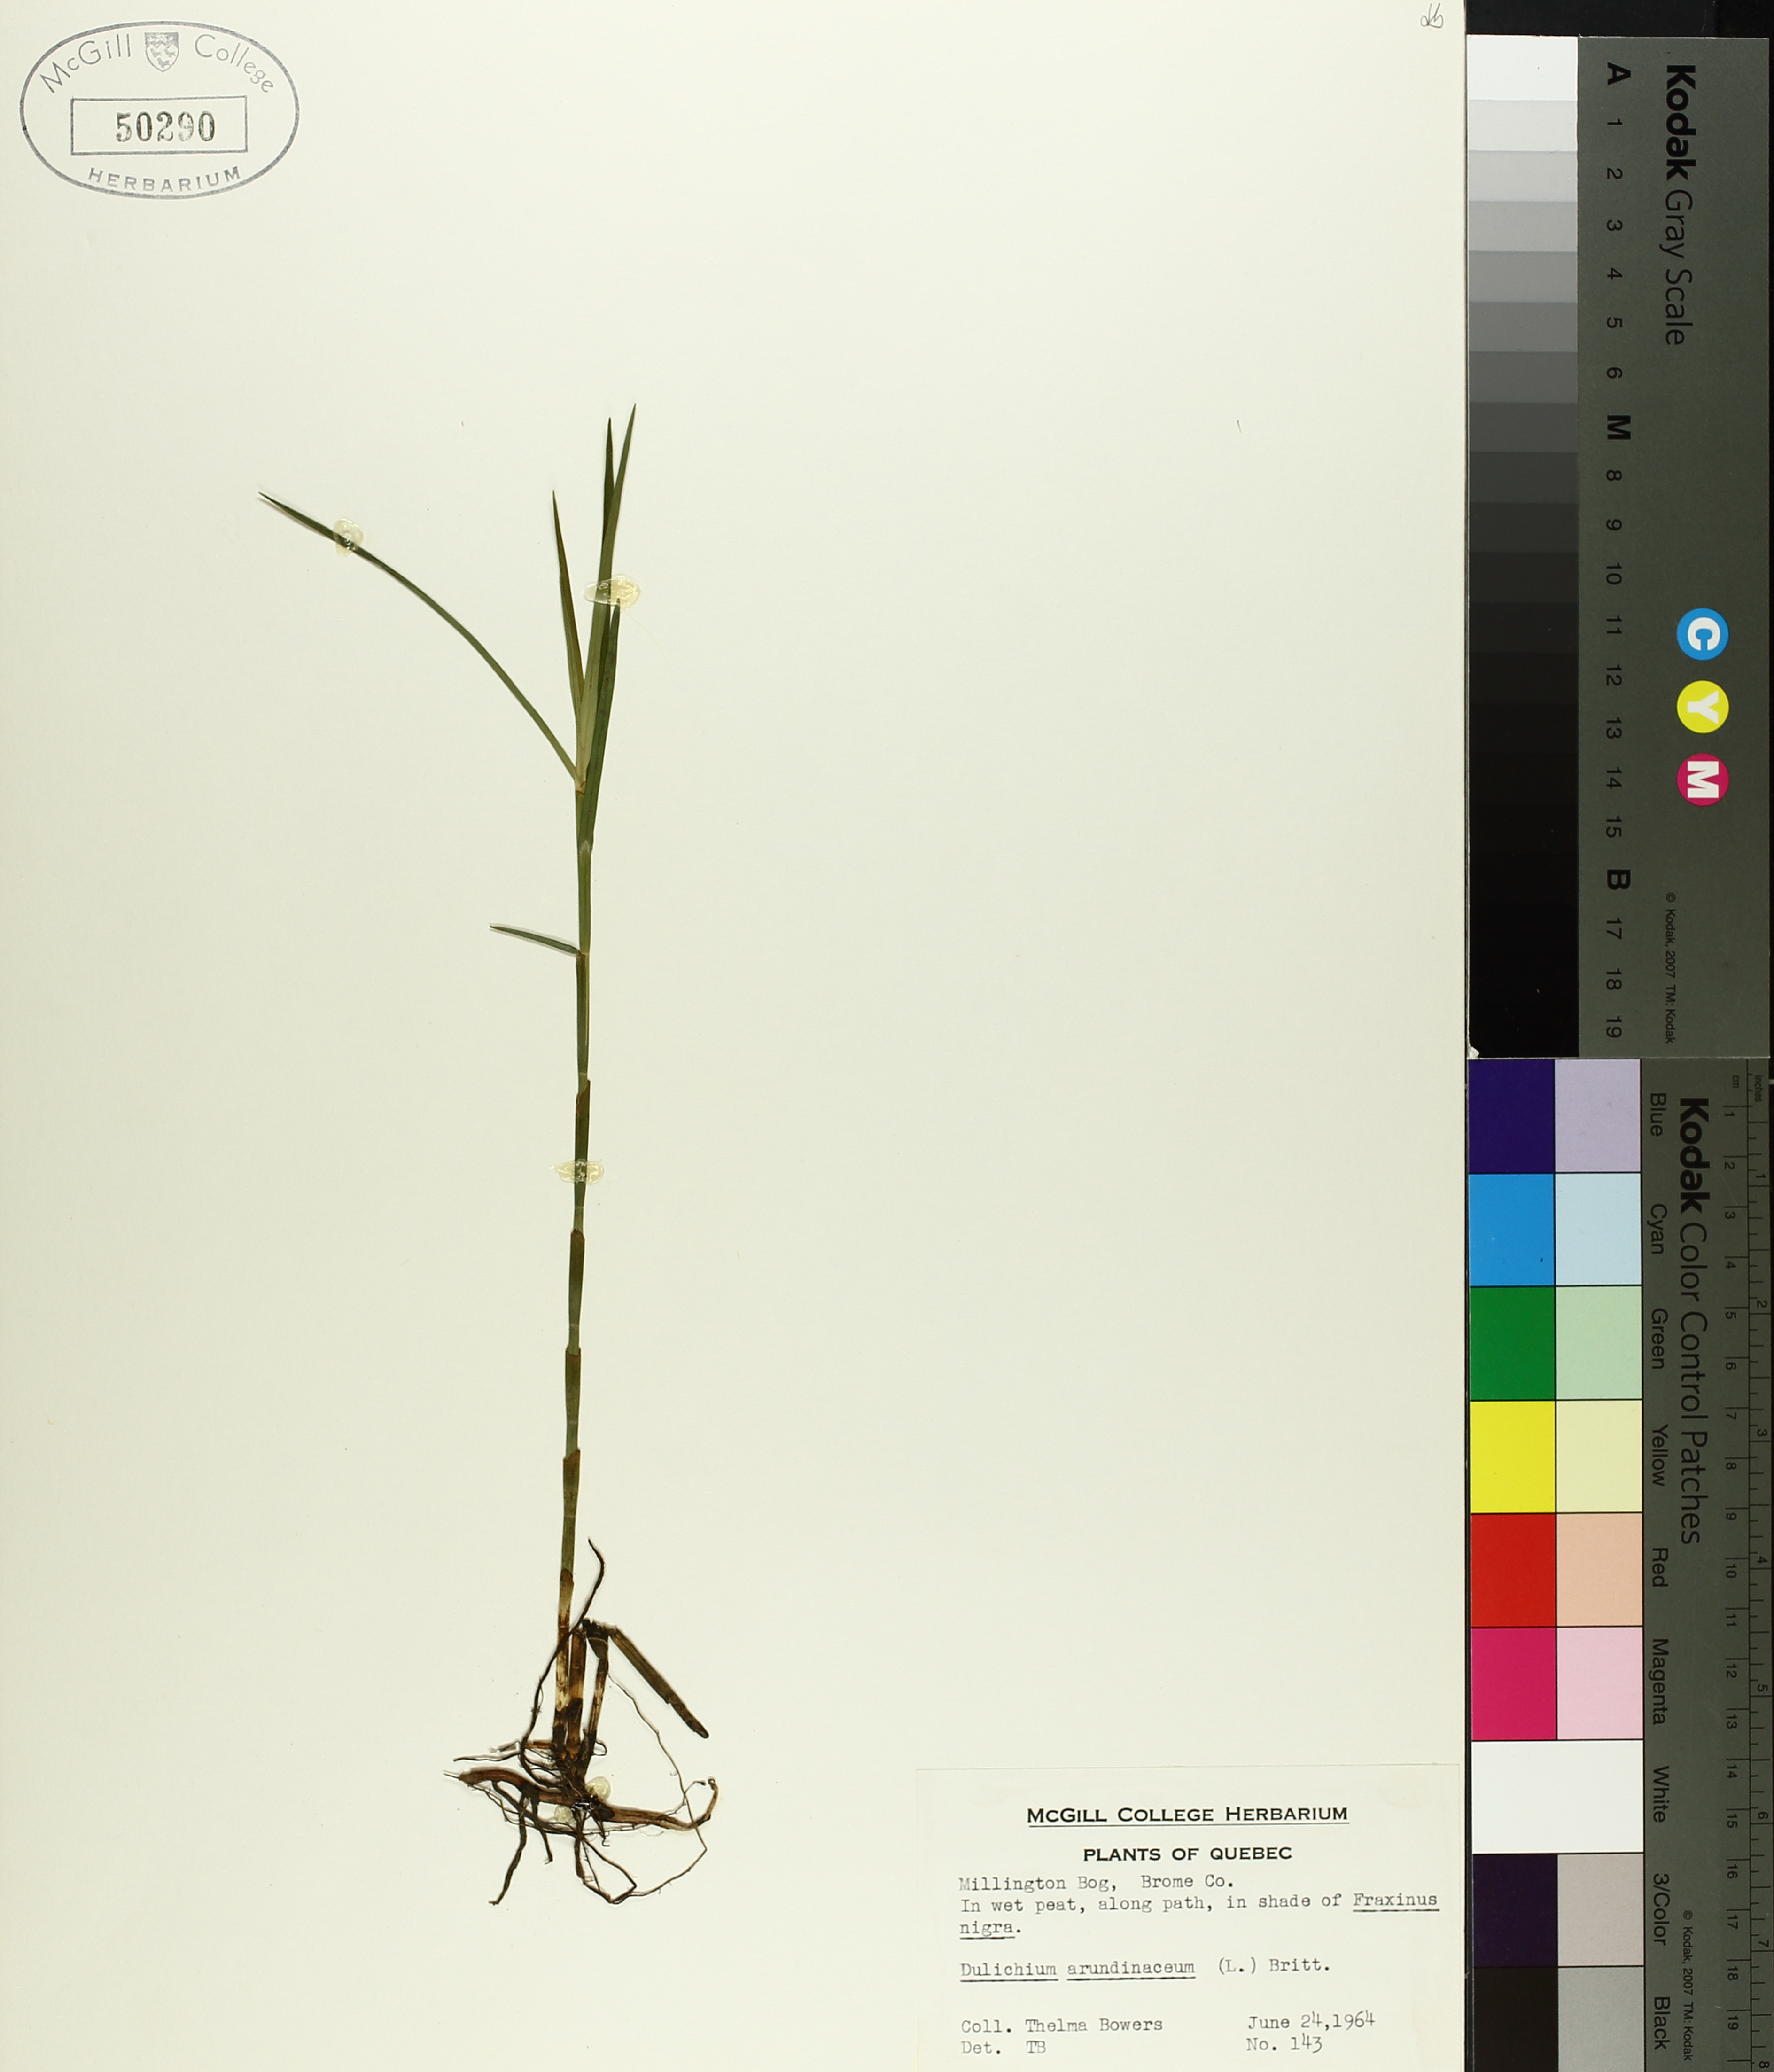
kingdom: Plantae
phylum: Tracheophyta
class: Liliopsida
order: Poales
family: Cyperaceae
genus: Dulichium
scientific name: Dulichium arundinaceum
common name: Three-way sedge
